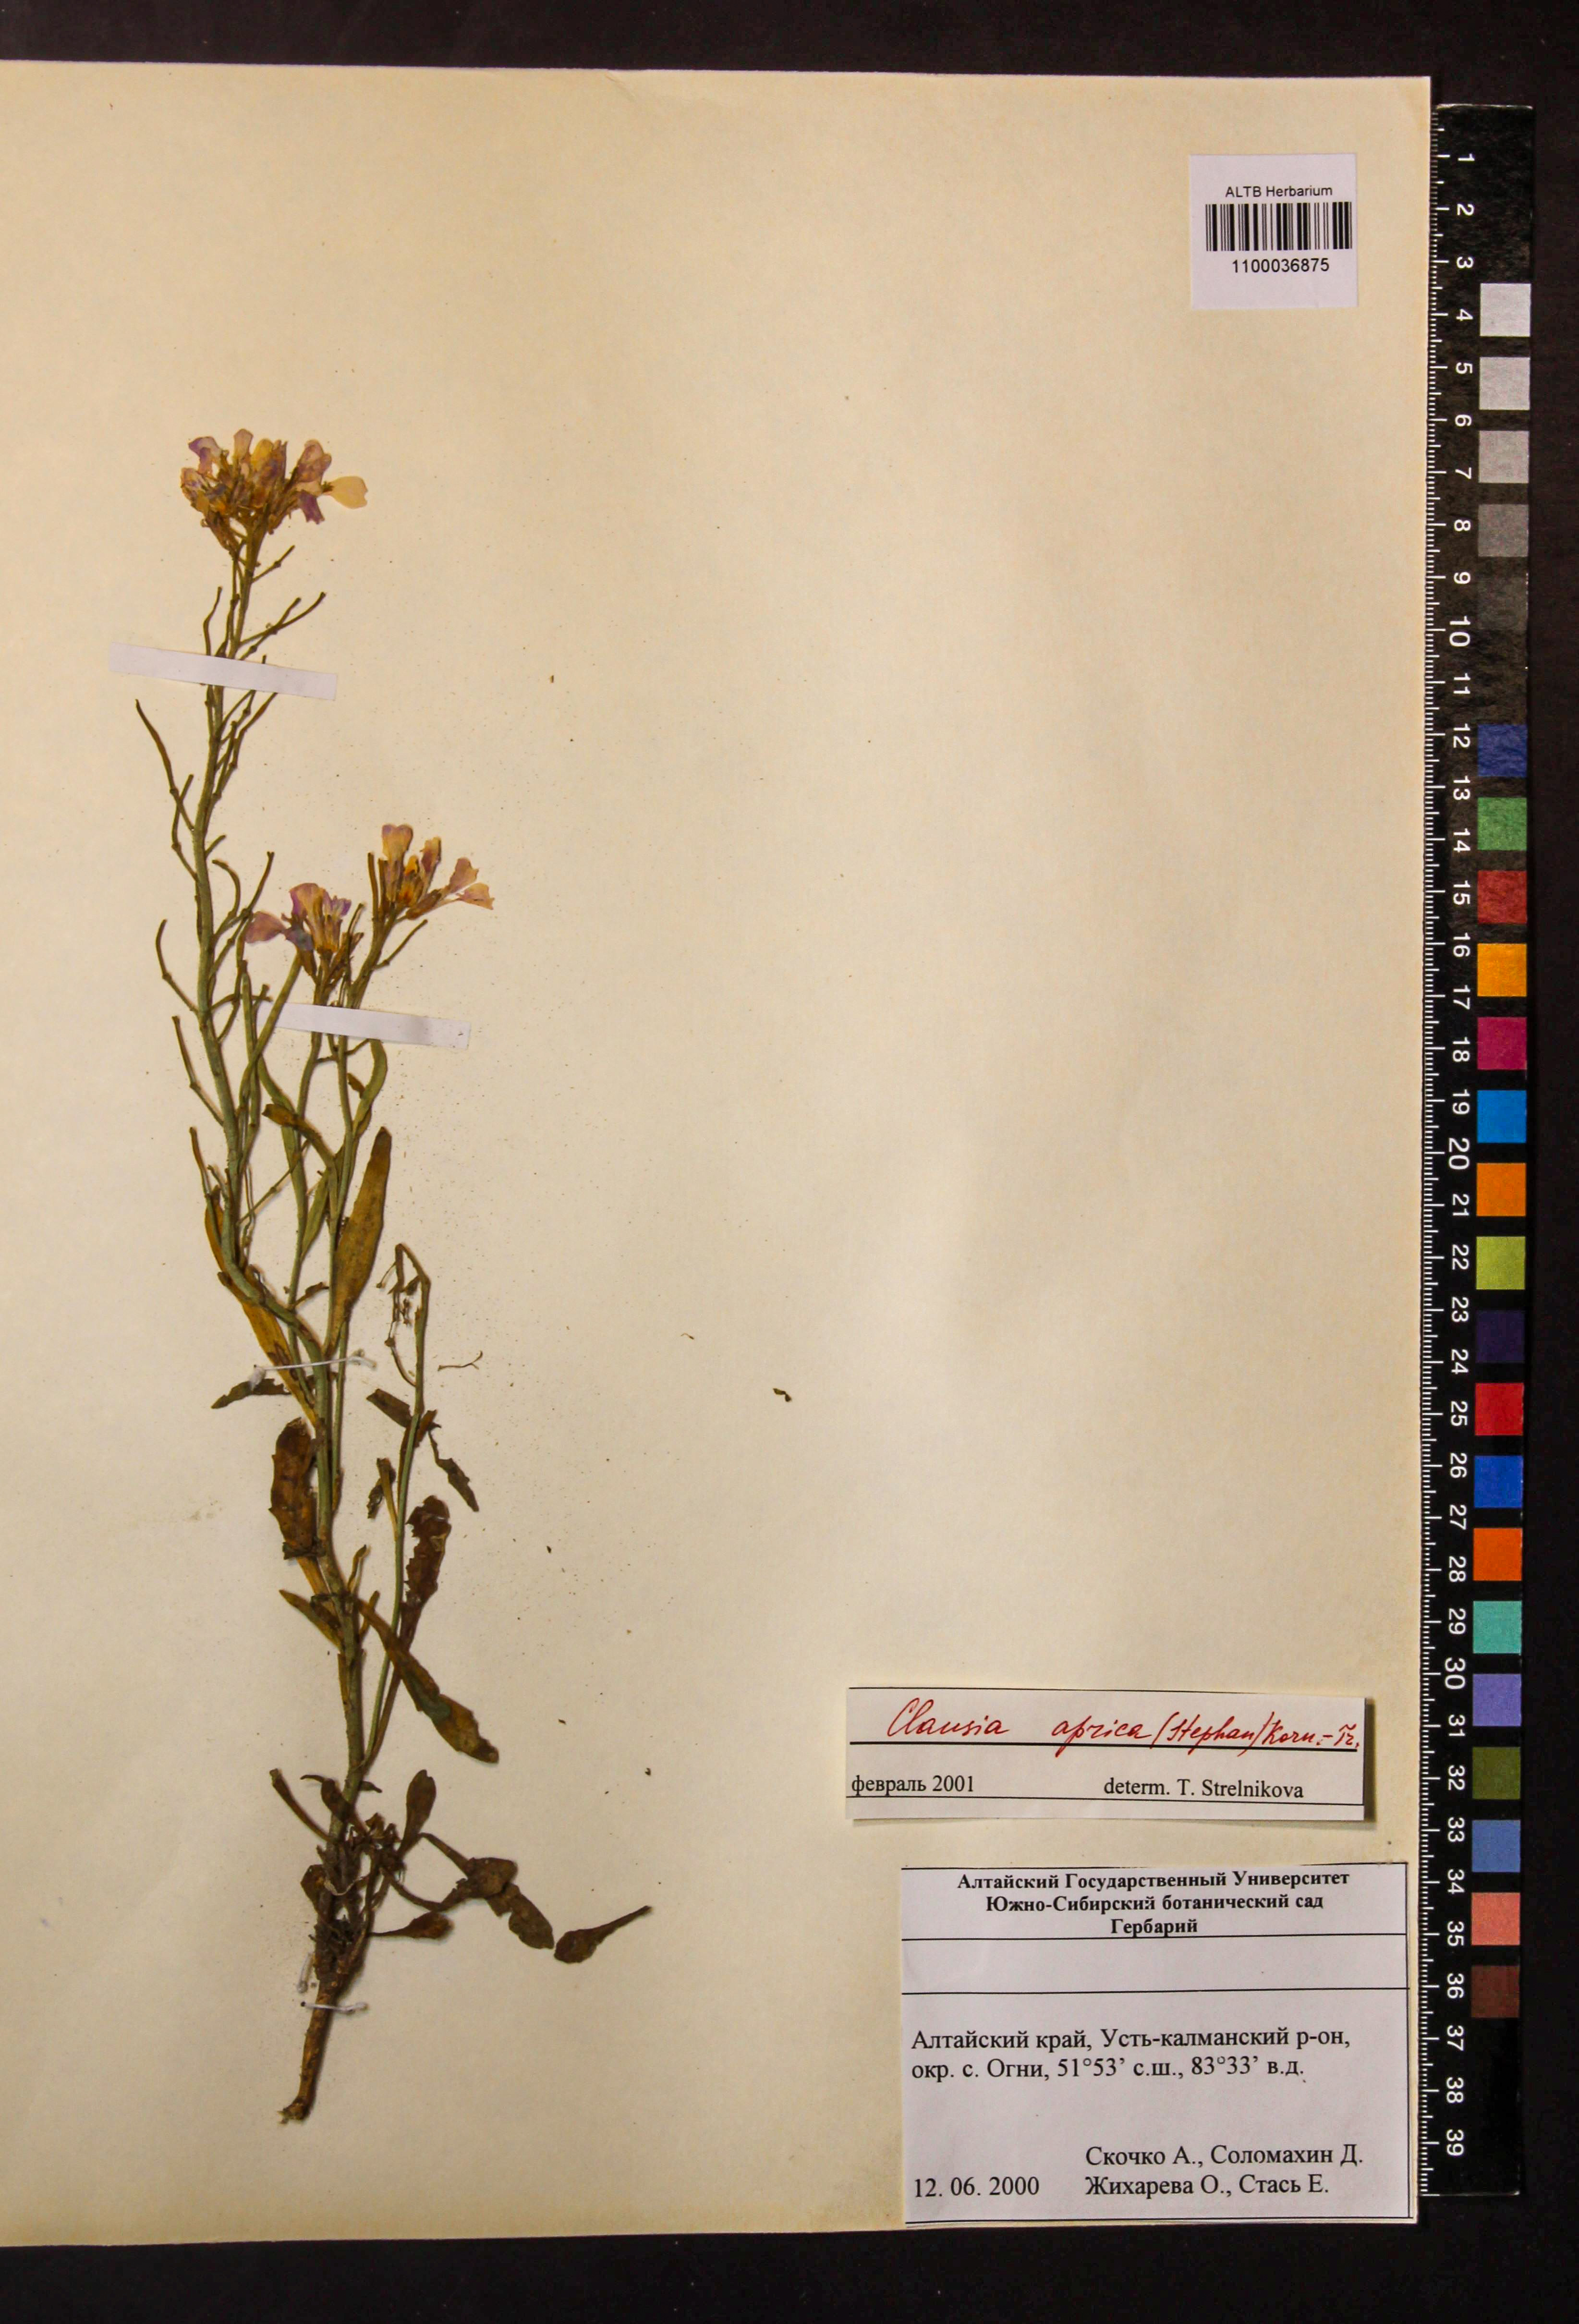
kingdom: Plantae
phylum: Tracheophyta
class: Magnoliopsida
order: Brassicales
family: Brassicaceae
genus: Clausia
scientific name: Clausia aprica
